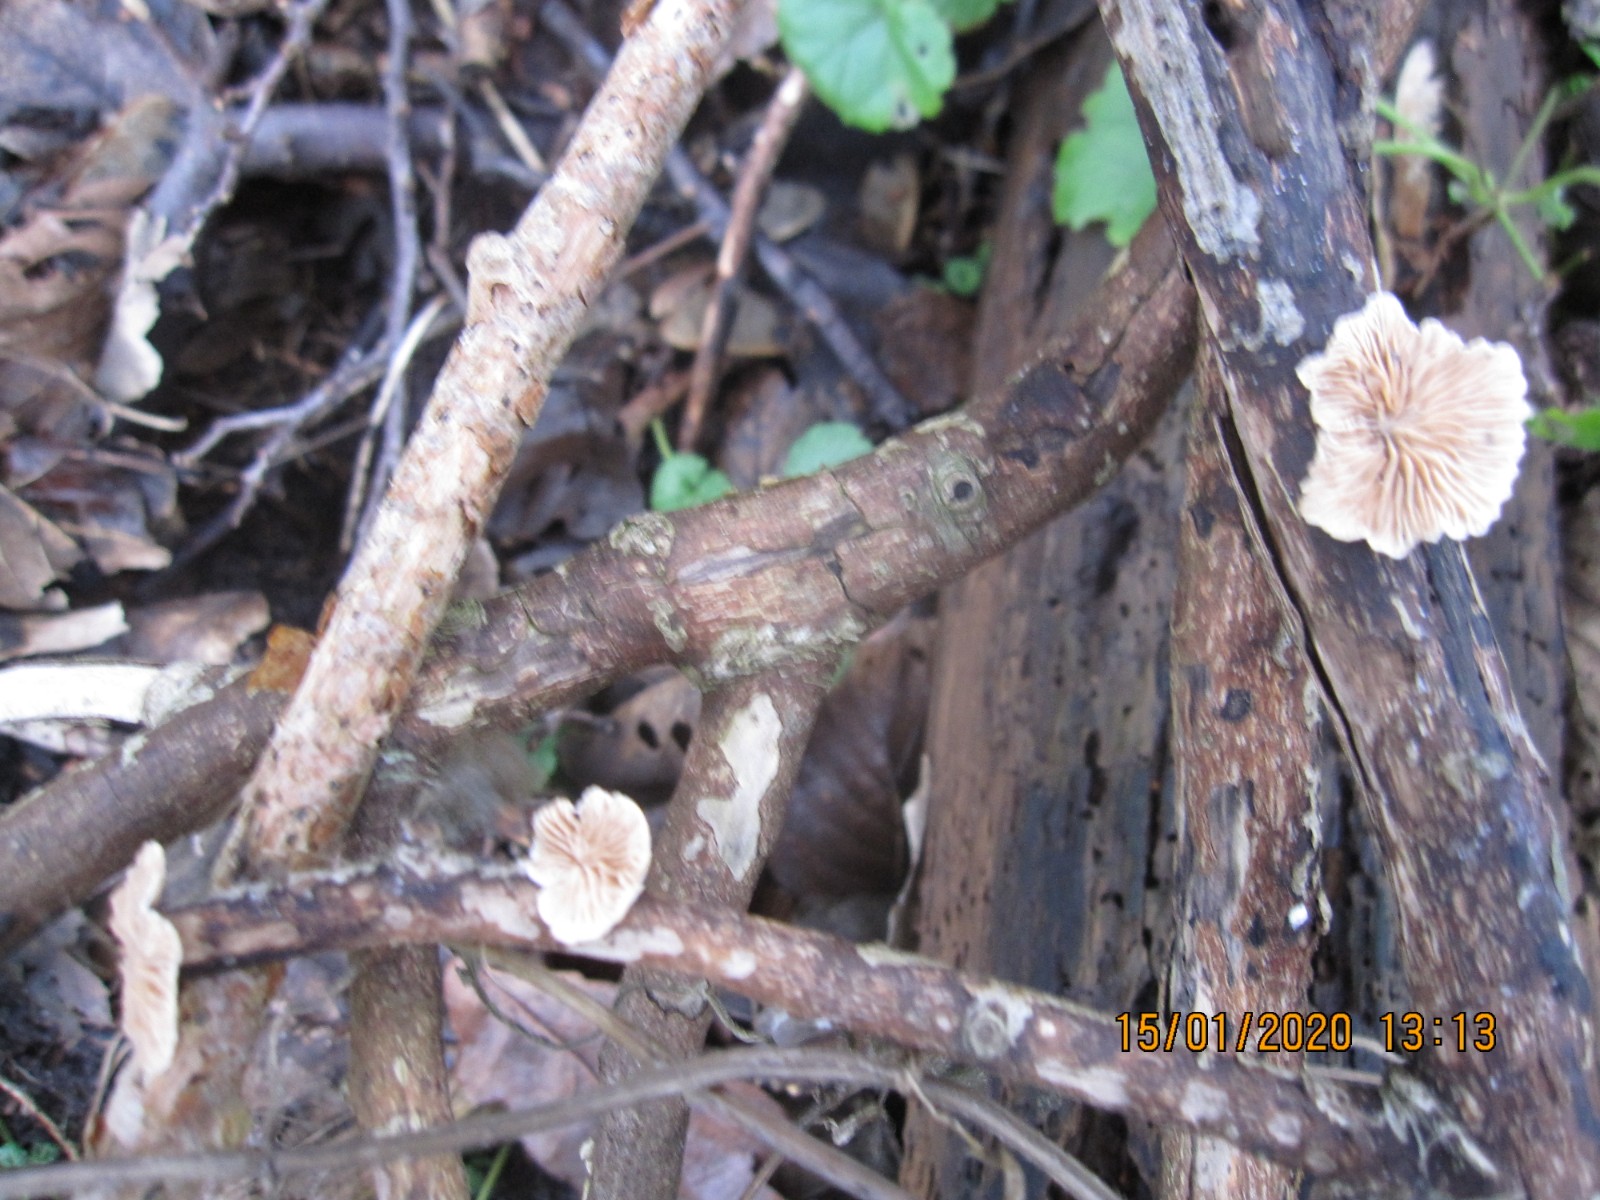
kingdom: Fungi
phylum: Basidiomycota
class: Agaricomycetes
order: Agaricales
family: Crepidotaceae
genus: Crepidotus
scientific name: Crepidotus cesatii
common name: almindelig muslingesvamp
